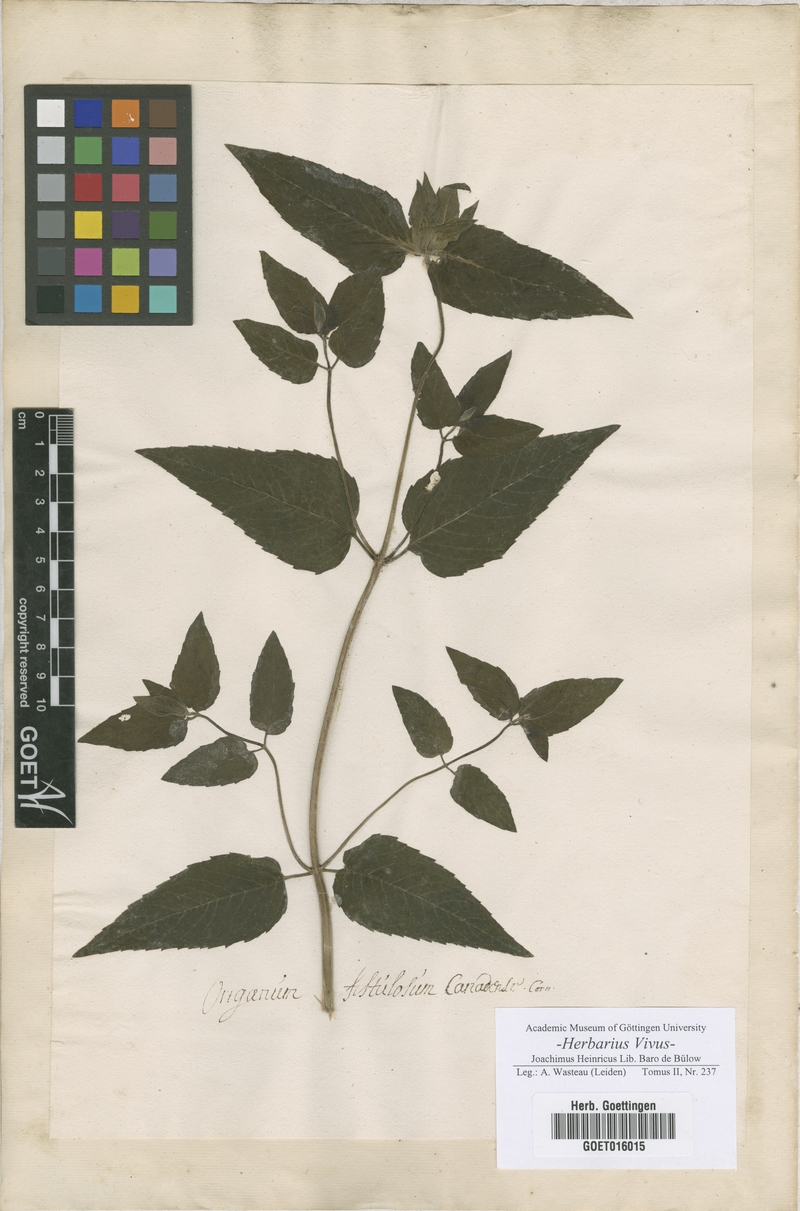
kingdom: Plantae
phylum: Tracheophyta
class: Magnoliopsida
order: Lamiales
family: Lamiaceae
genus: Monarda
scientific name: Monarda fistulosa
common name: Purple beebalm
